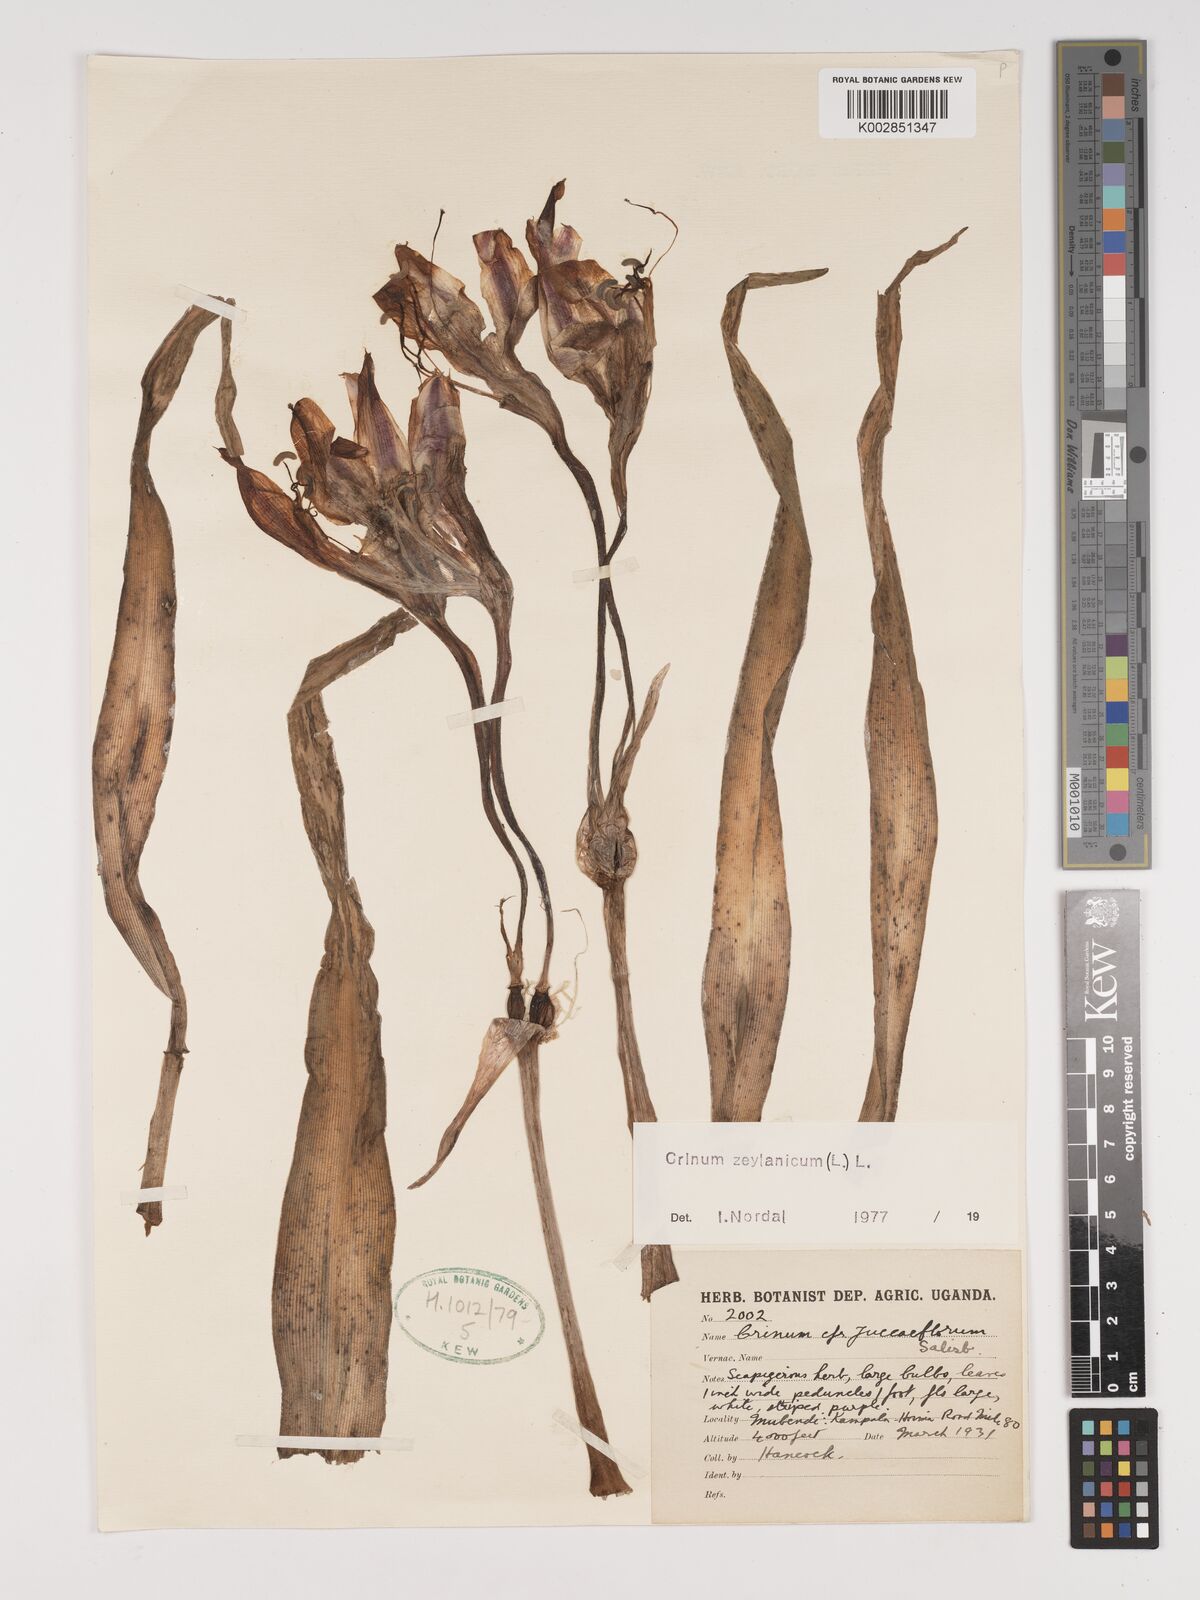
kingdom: Plantae
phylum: Tracheophyta
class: Liliopsida
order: Asparagales
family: Amaryllidaceae
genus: Crinum
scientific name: Crinum zeylanicum
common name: Ceylon swamplily
